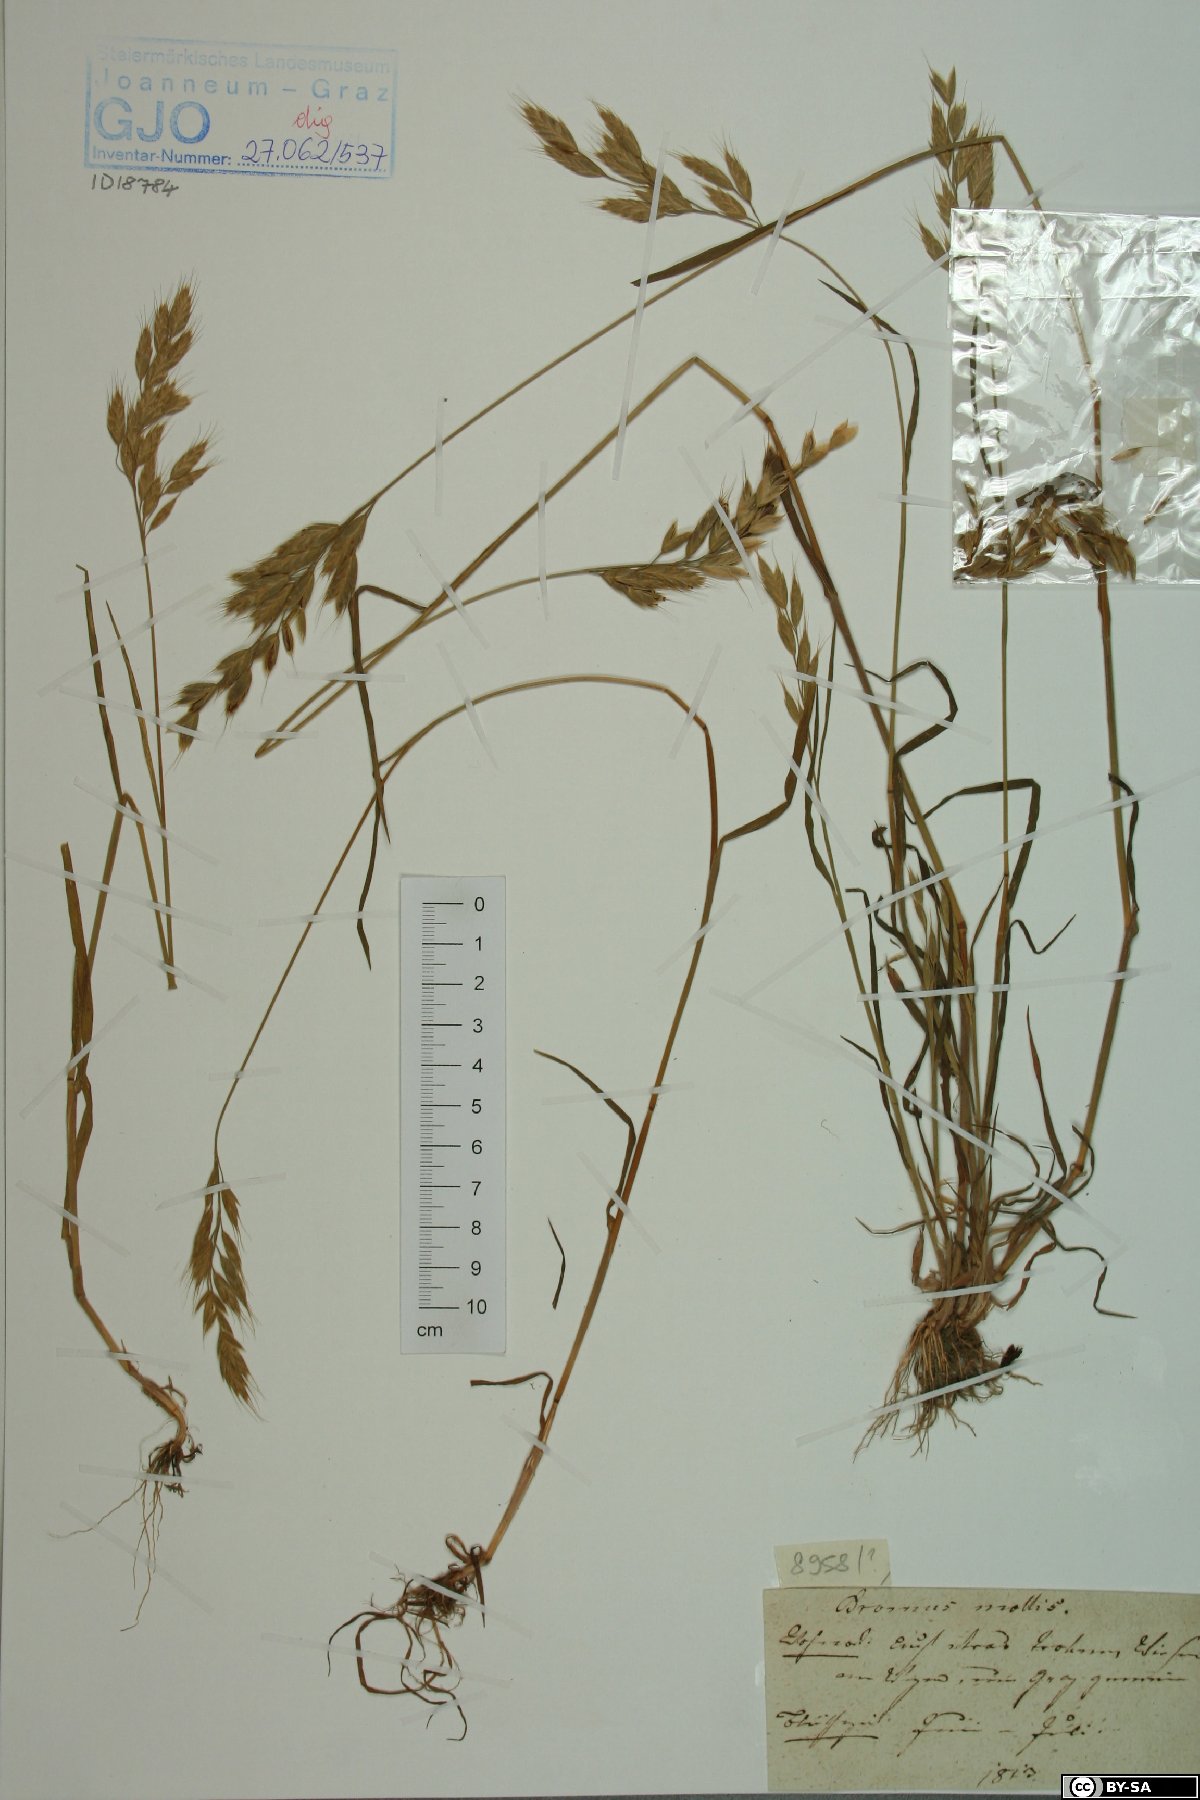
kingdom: Plantae
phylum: Tracheophyta
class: Liliopsida
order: Poales
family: Poaceae
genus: Bromus
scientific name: Bromus hordeaceus
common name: Soft brome
